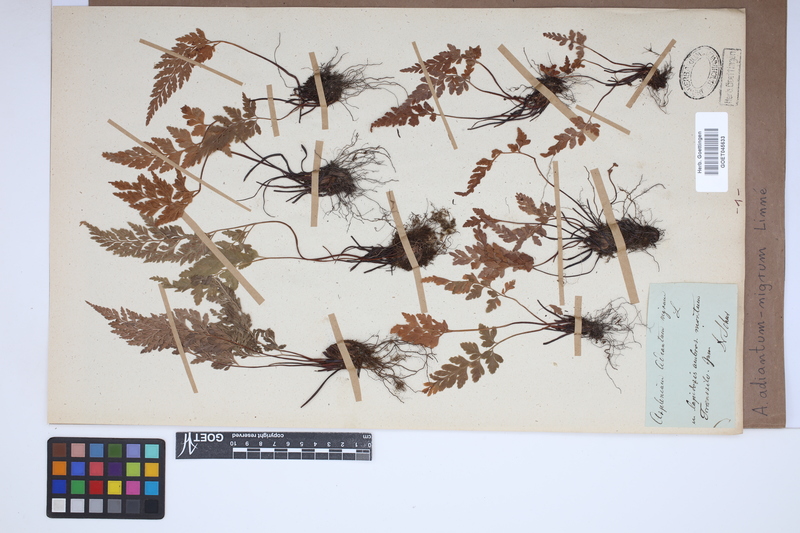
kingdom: Plantae
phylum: Tracheophyta
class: Polypodiopsida
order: Polypodiales
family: Aspleniaceae
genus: Asplenium
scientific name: Asplenium adiantum-nigrum
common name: Black spleenwort
